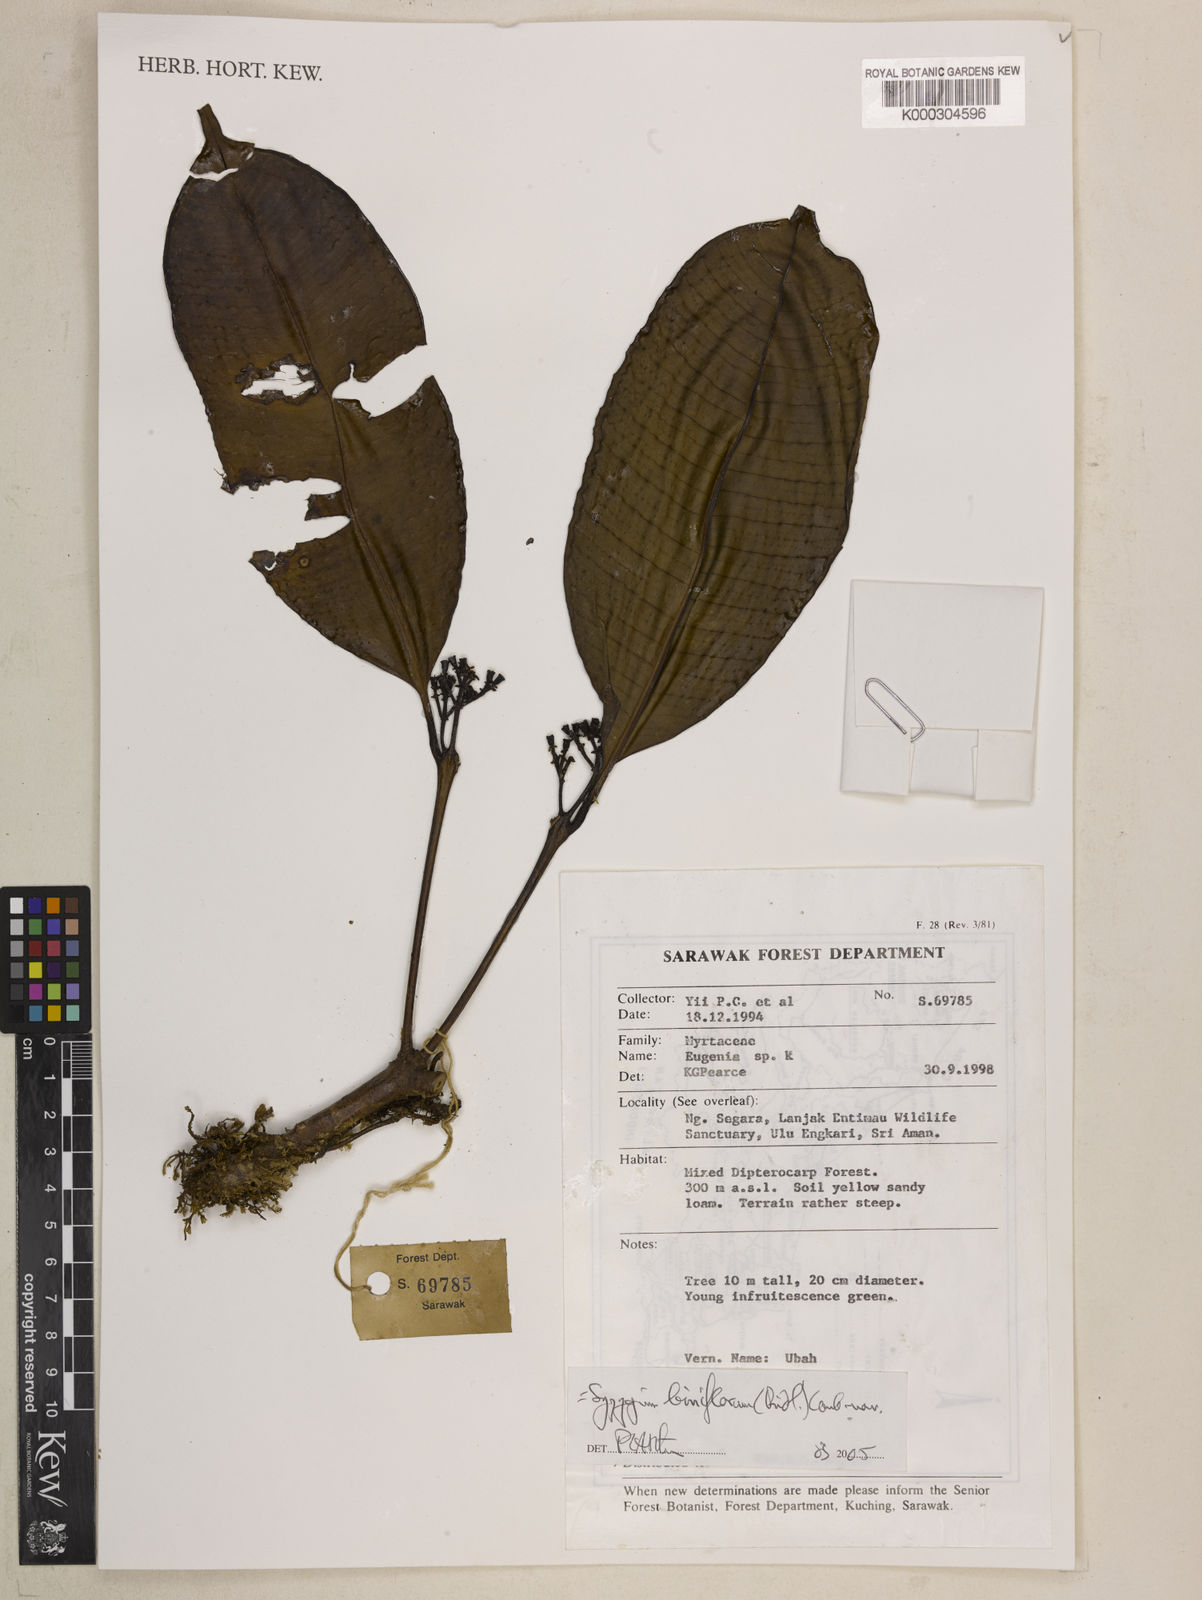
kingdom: Plantae
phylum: Tracheophyta
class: Magnoliopsida
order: Myrtales
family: Myrtaceae
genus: Syzygium
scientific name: Syzygium biniflorum
